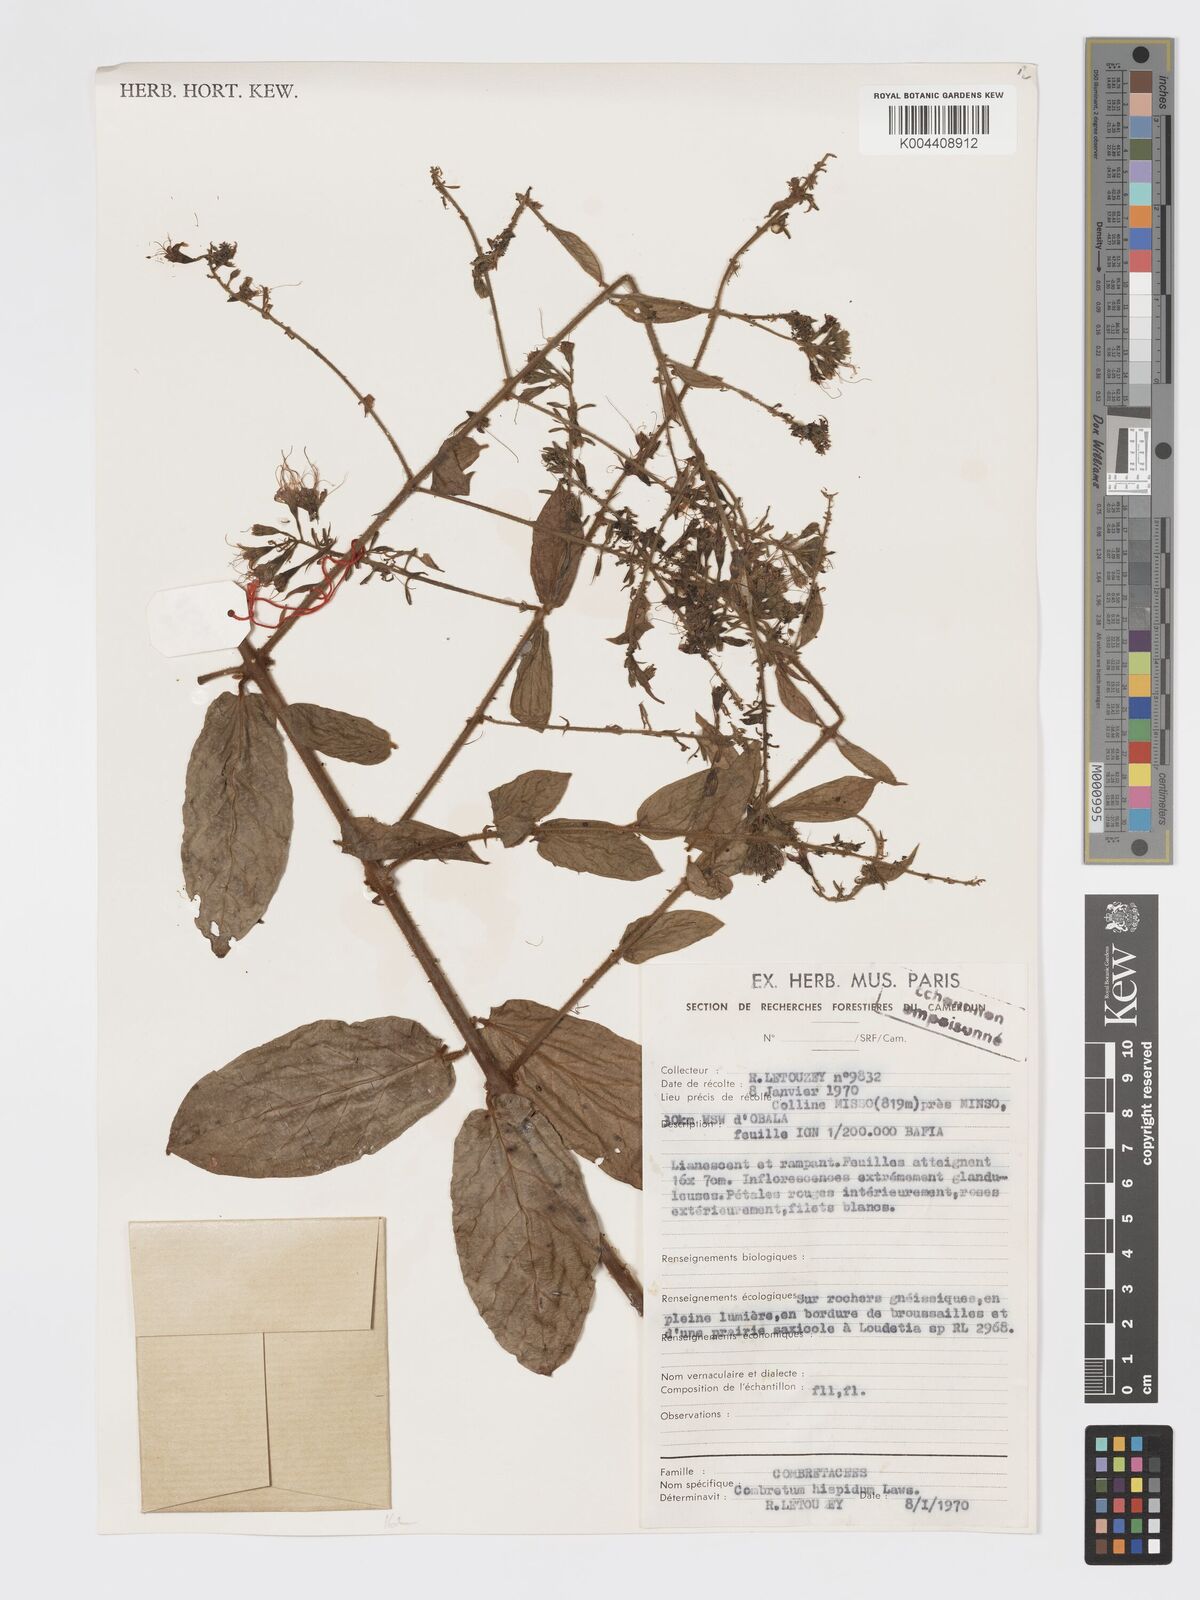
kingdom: Plantae
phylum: Tracheophyta
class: Magnoliopsida
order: Myrtales
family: Combretaceae
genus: Combretum
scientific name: Combretum
